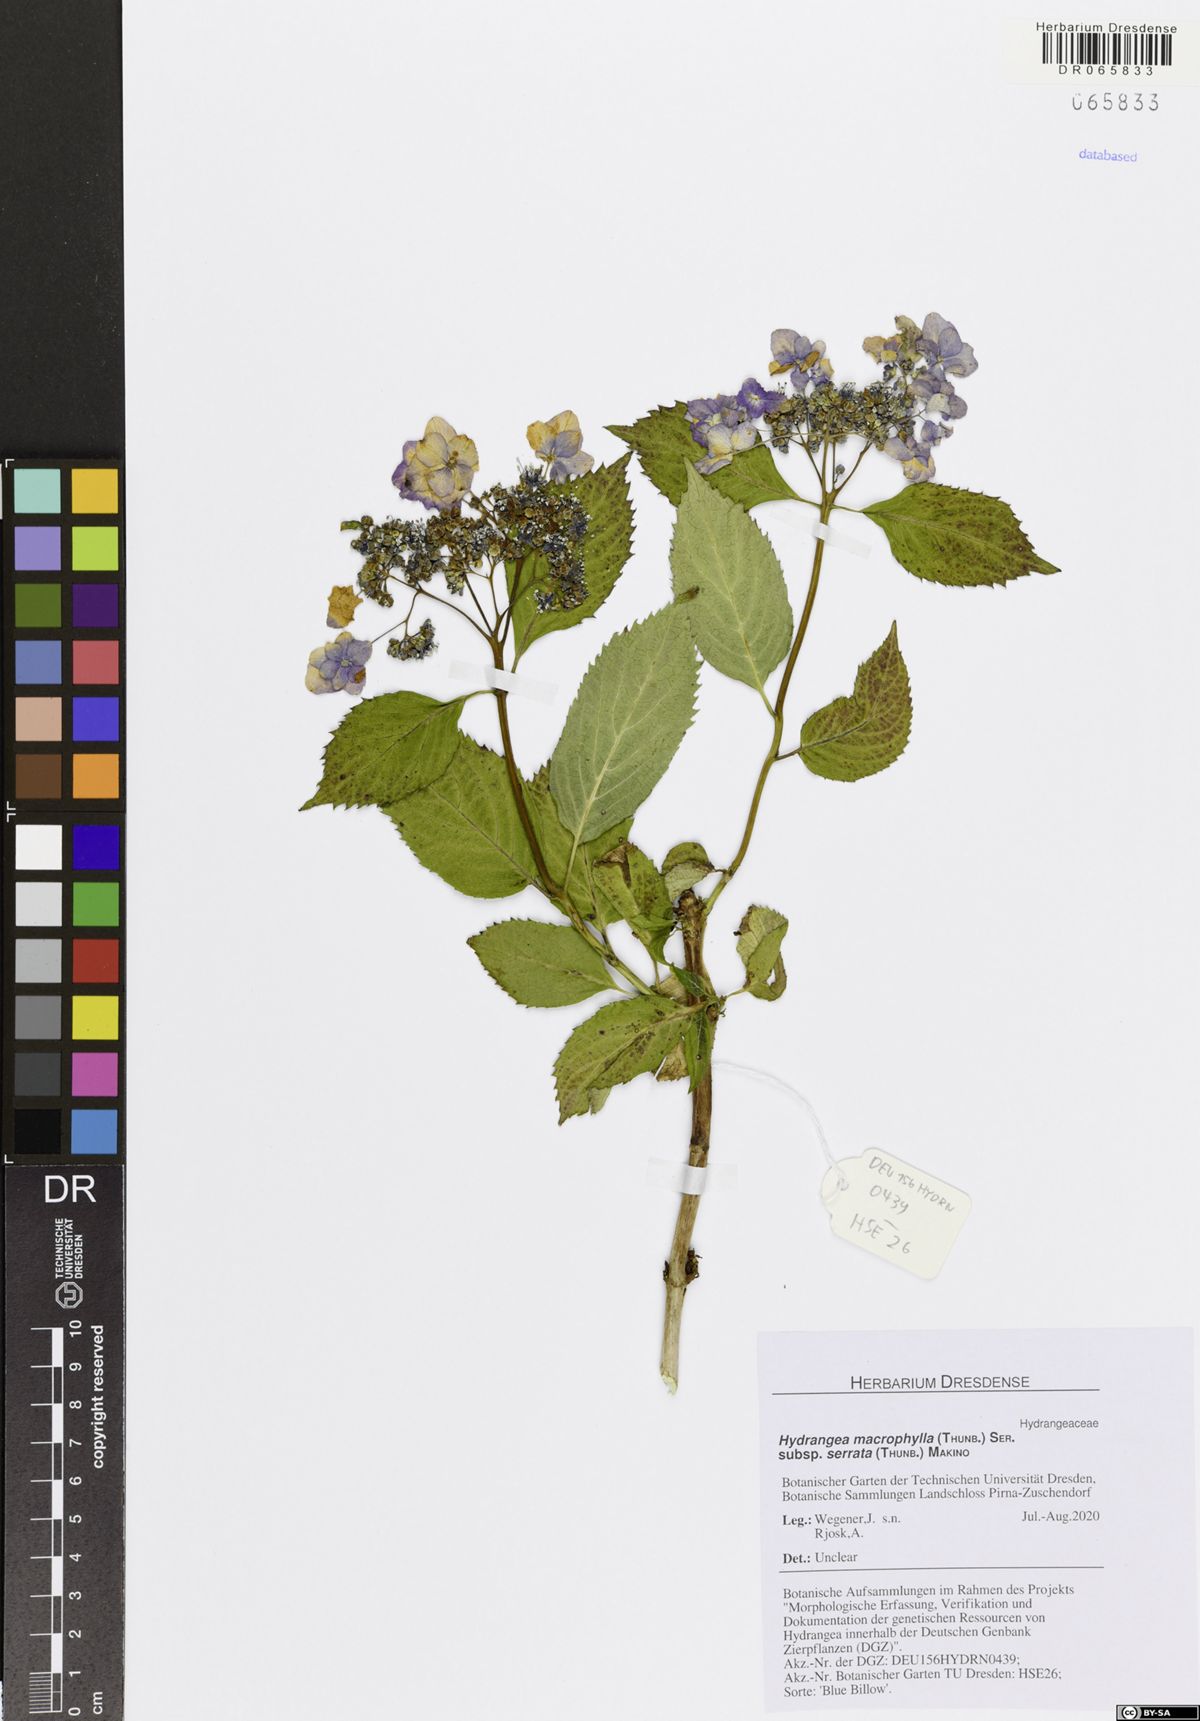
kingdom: Plantae
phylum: Tracheophyta
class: Magnoliopsida
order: Cornales
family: Hydrangeaceae
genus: Hydrangea
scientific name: Hydrangea serrata
